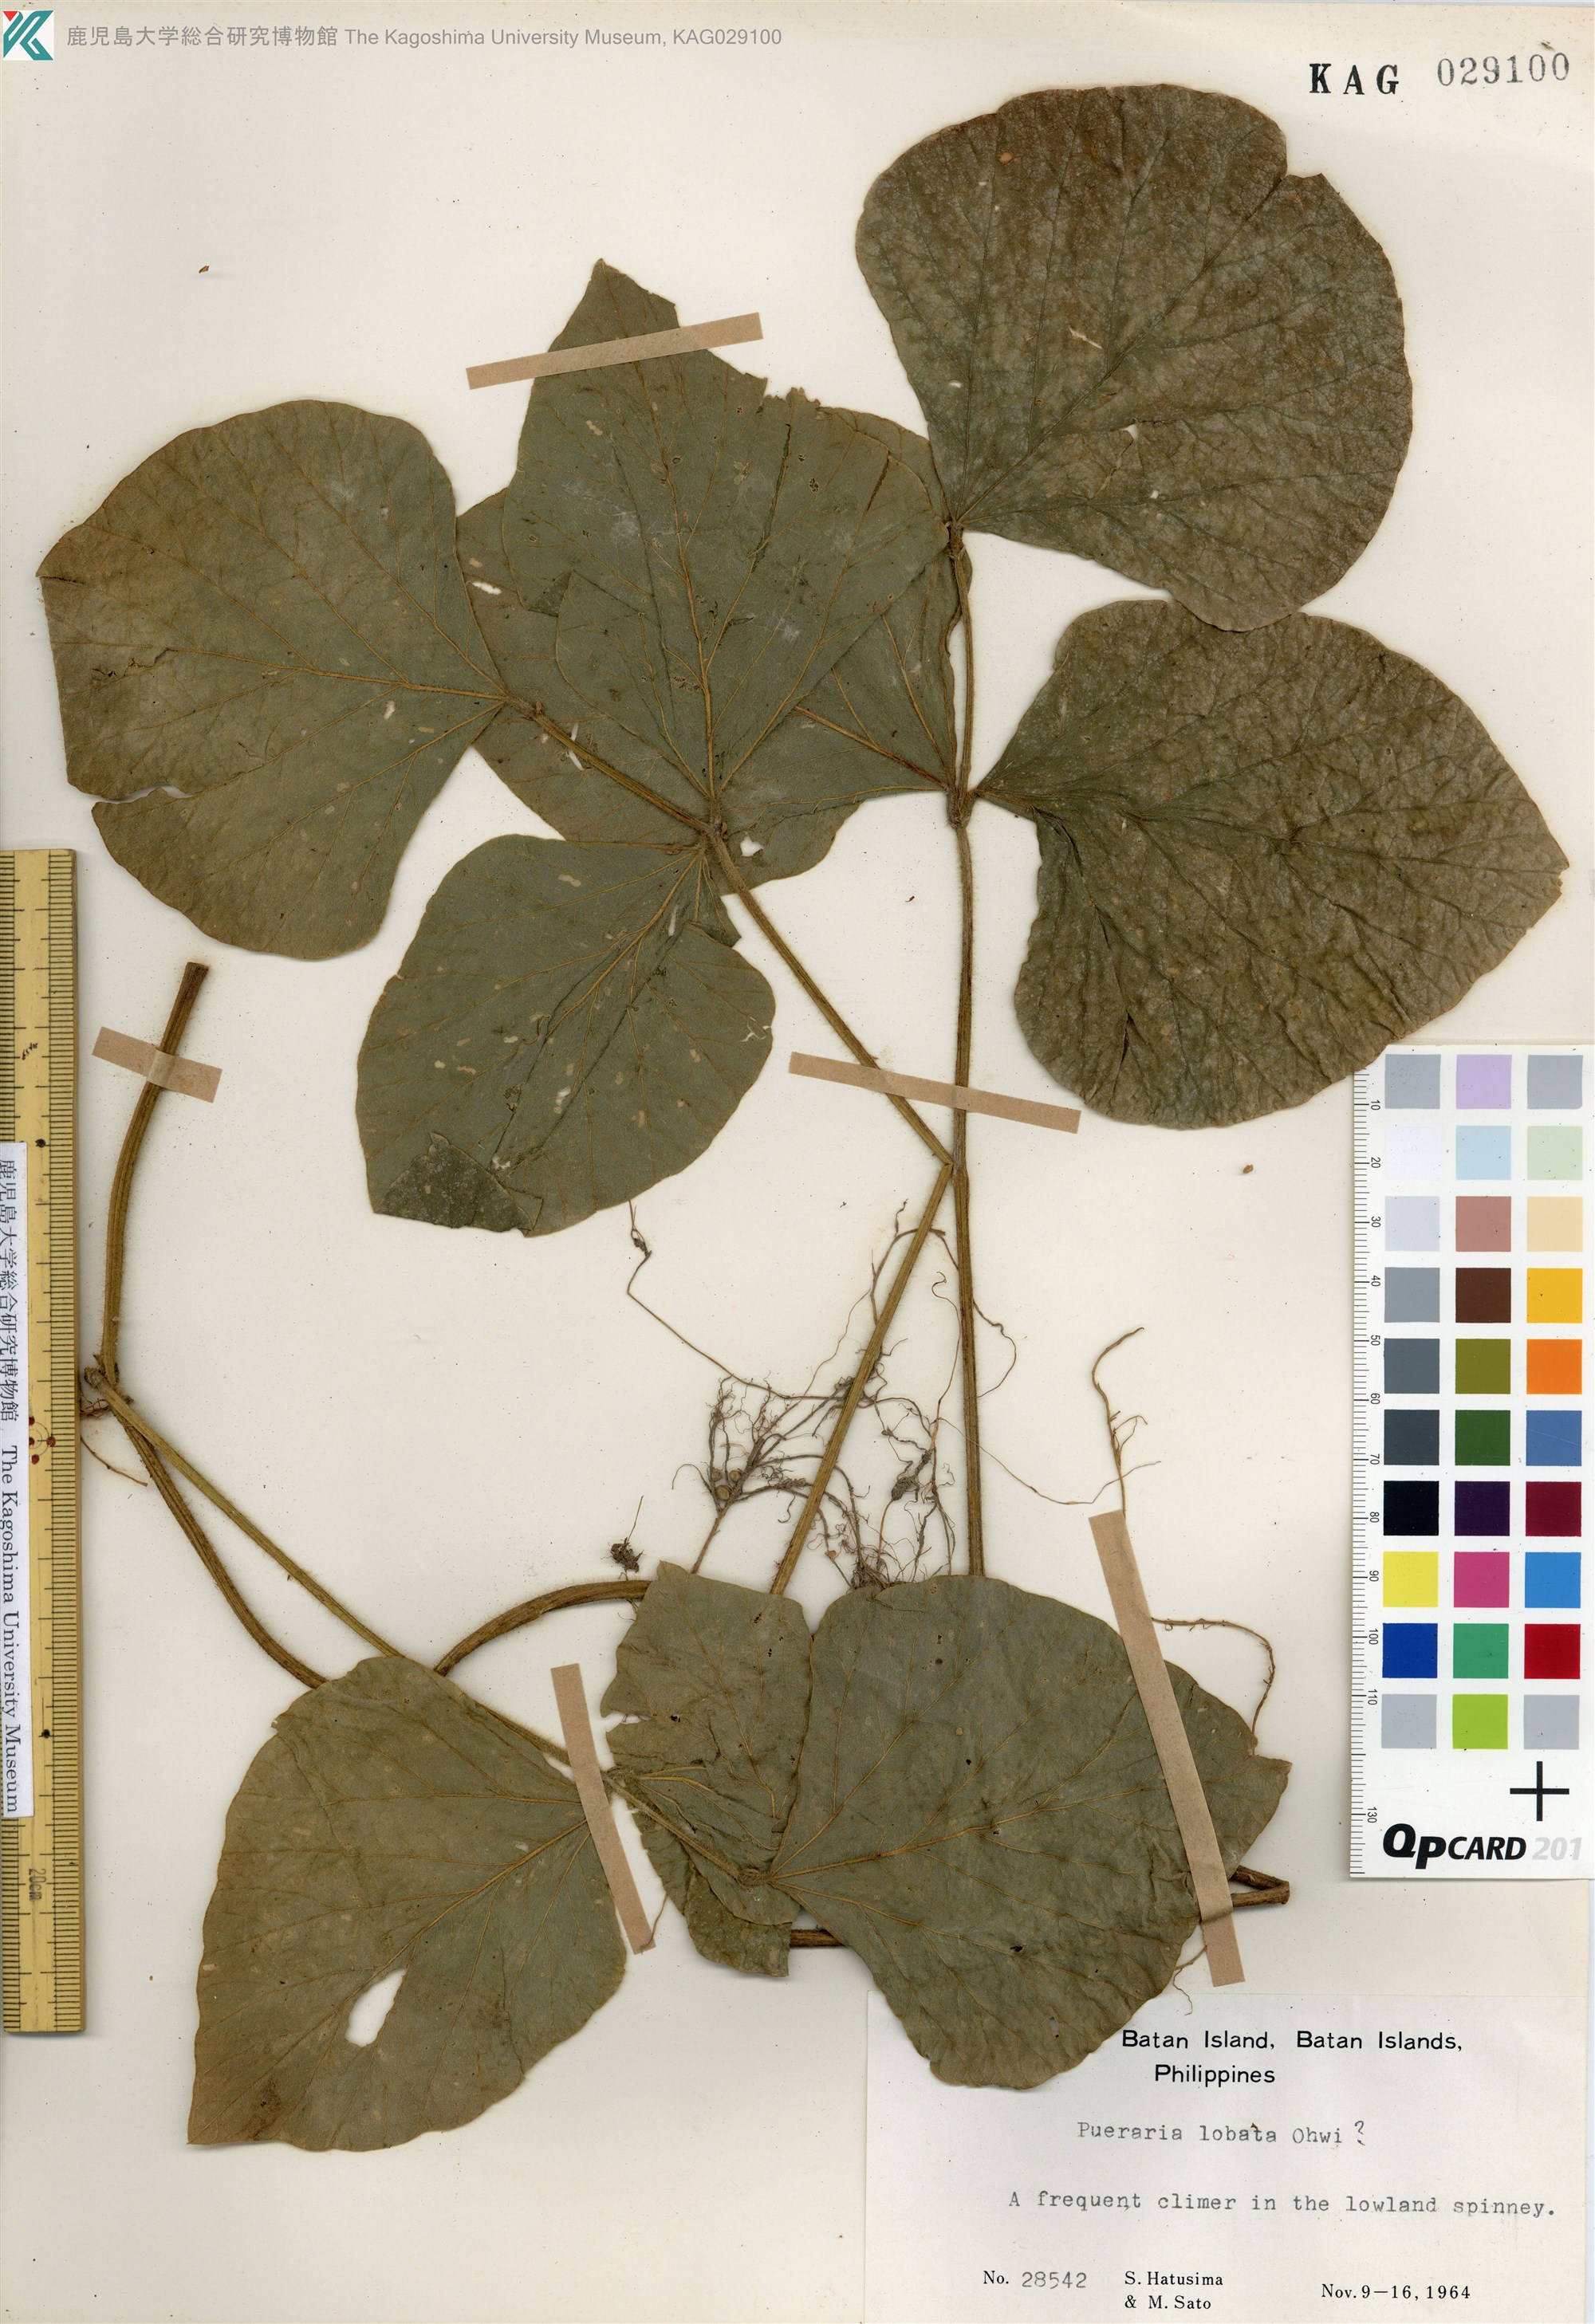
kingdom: Plantae
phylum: Tracheophyta
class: Magnoliopsida
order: Fabales
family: Fabaceae
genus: Pueraria
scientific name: Pueraria montana
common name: Kudzu
